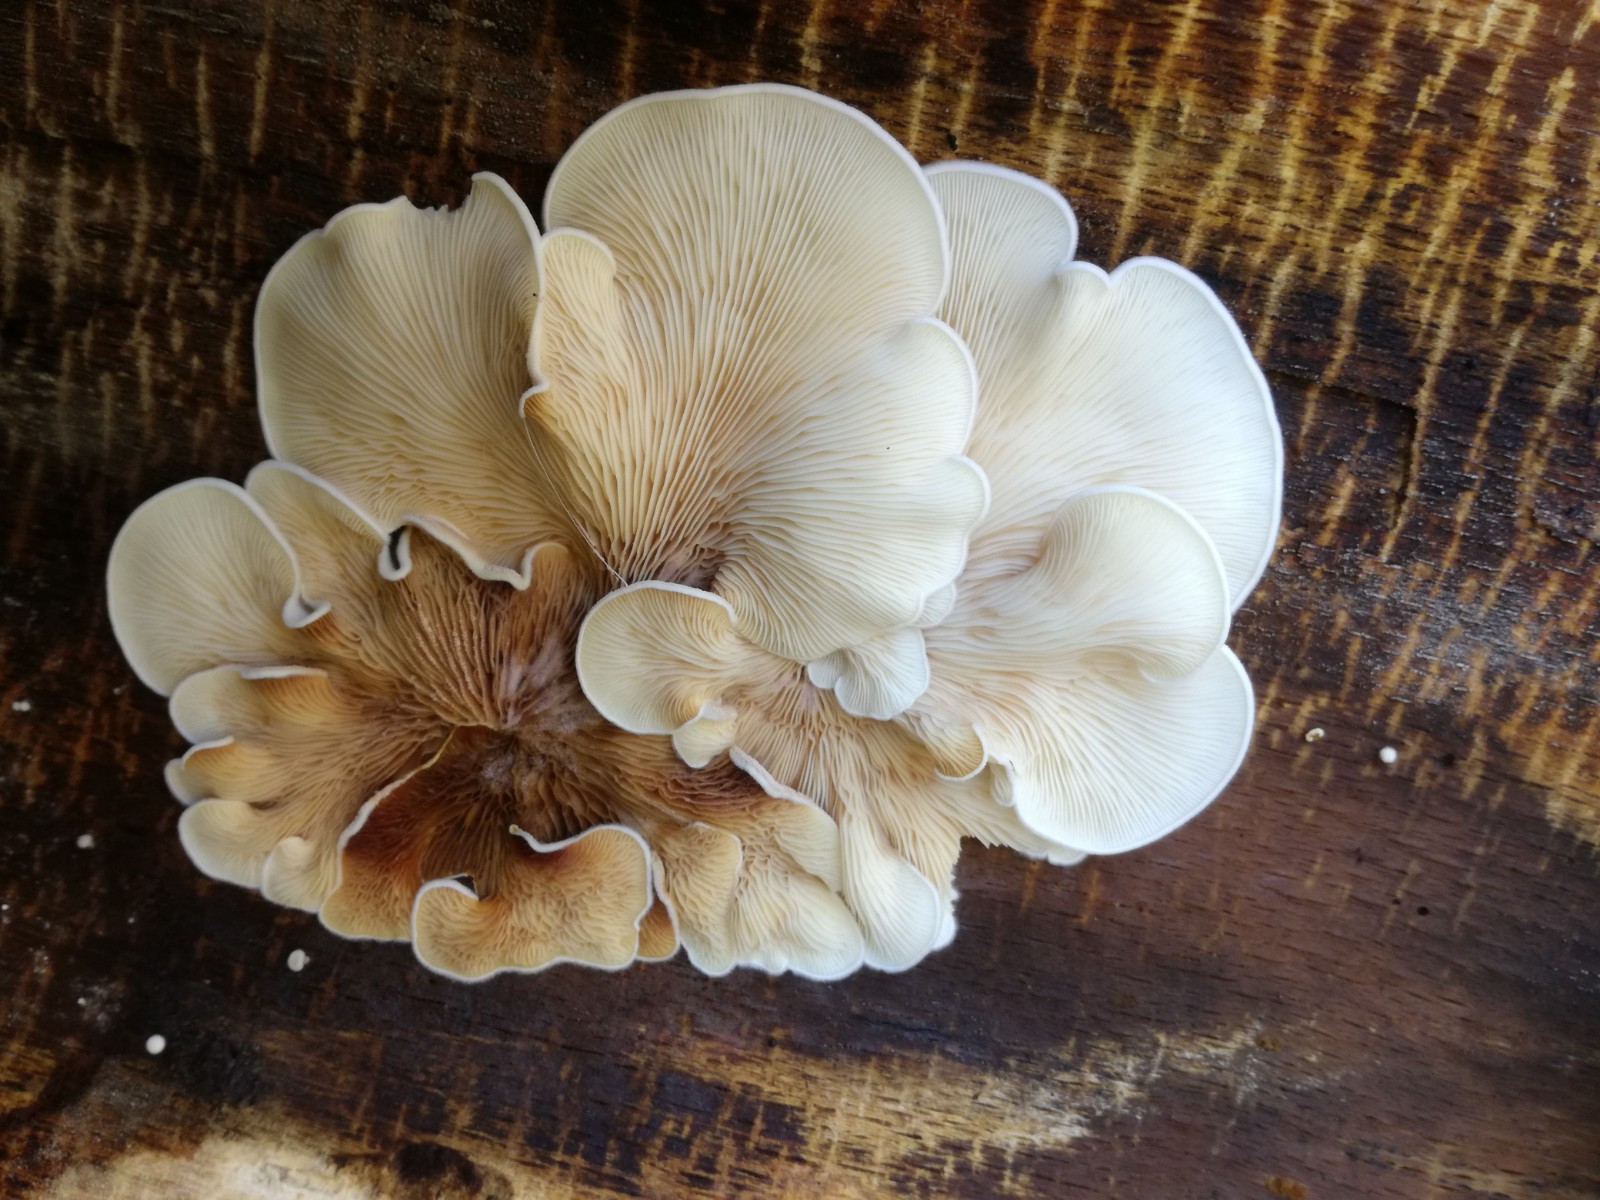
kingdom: Fungi
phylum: Basidiomycota
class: Agaricomycetes
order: Agaricales
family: Entolomataceae
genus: Clitopilus
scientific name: Clitopilus passeckerianus
